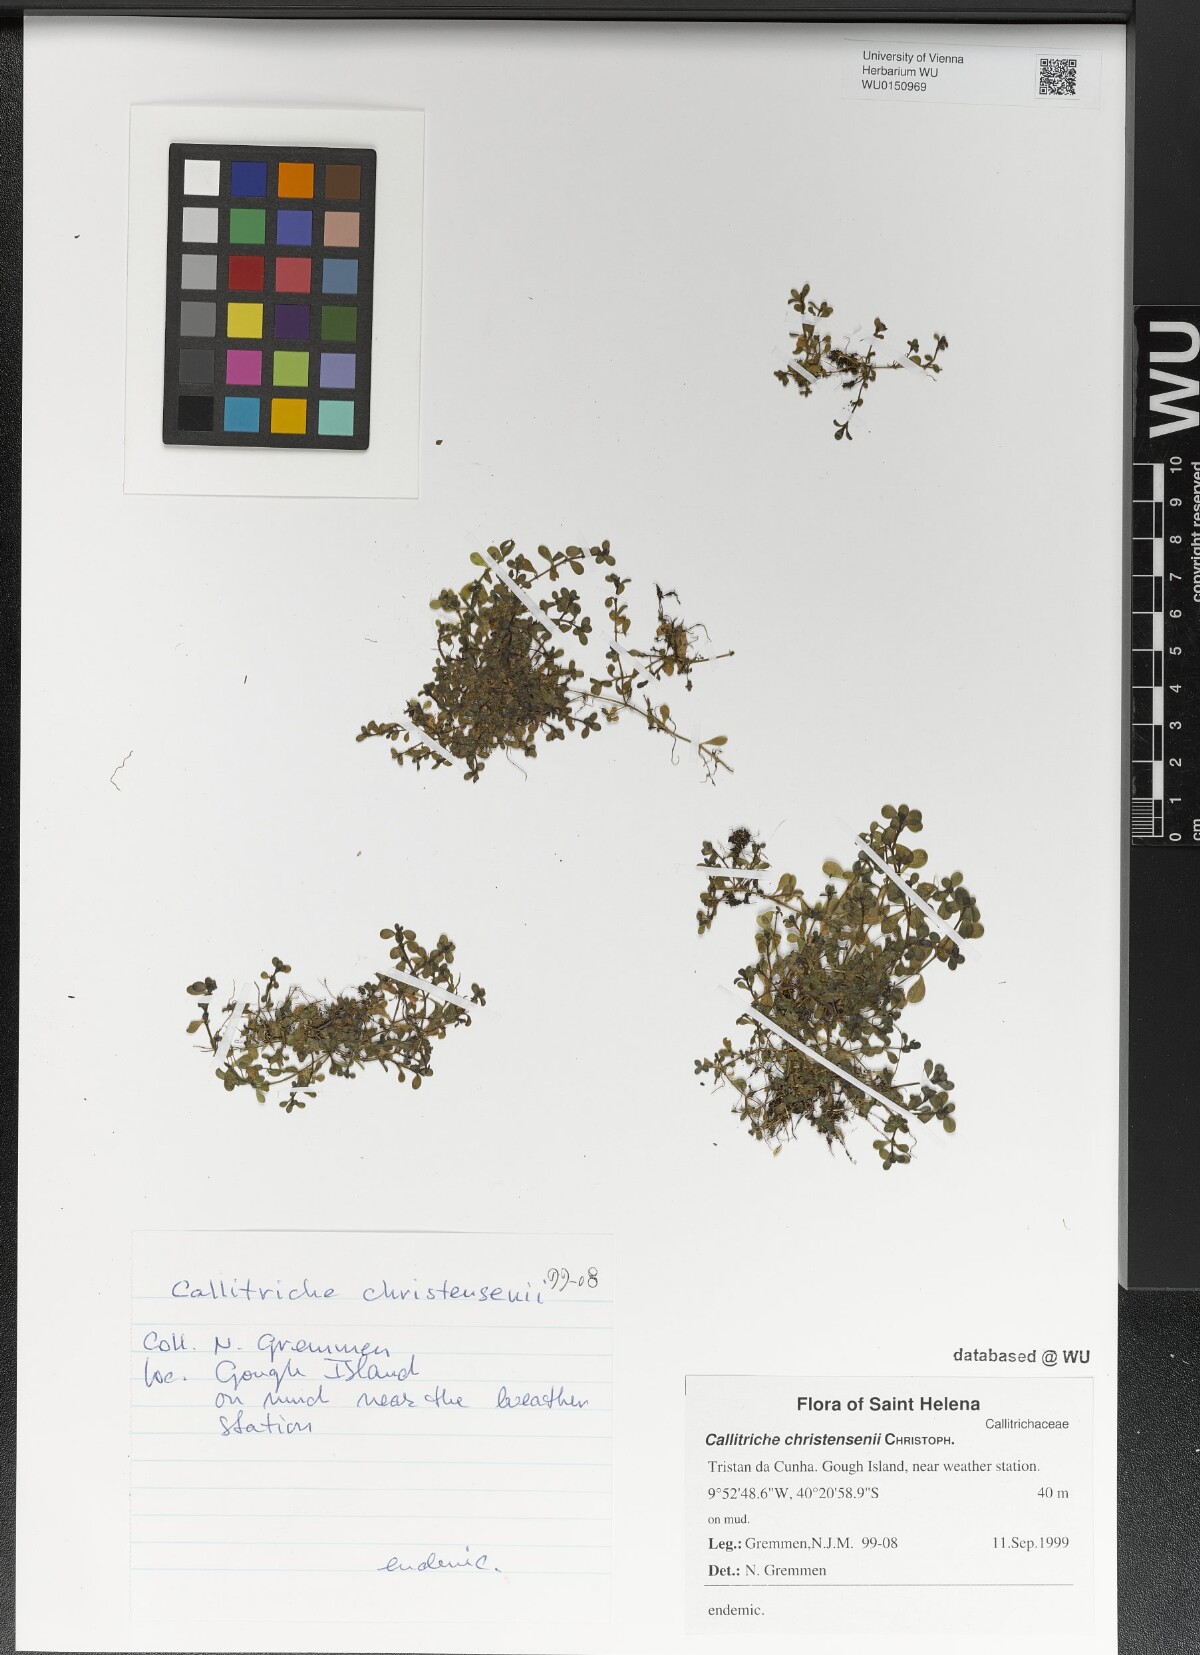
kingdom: Plantae
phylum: Tracheophyta
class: Magnoliopsida
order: Lamiales
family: Plantaginaceae
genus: Callitriche
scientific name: Callitriche christensenii
